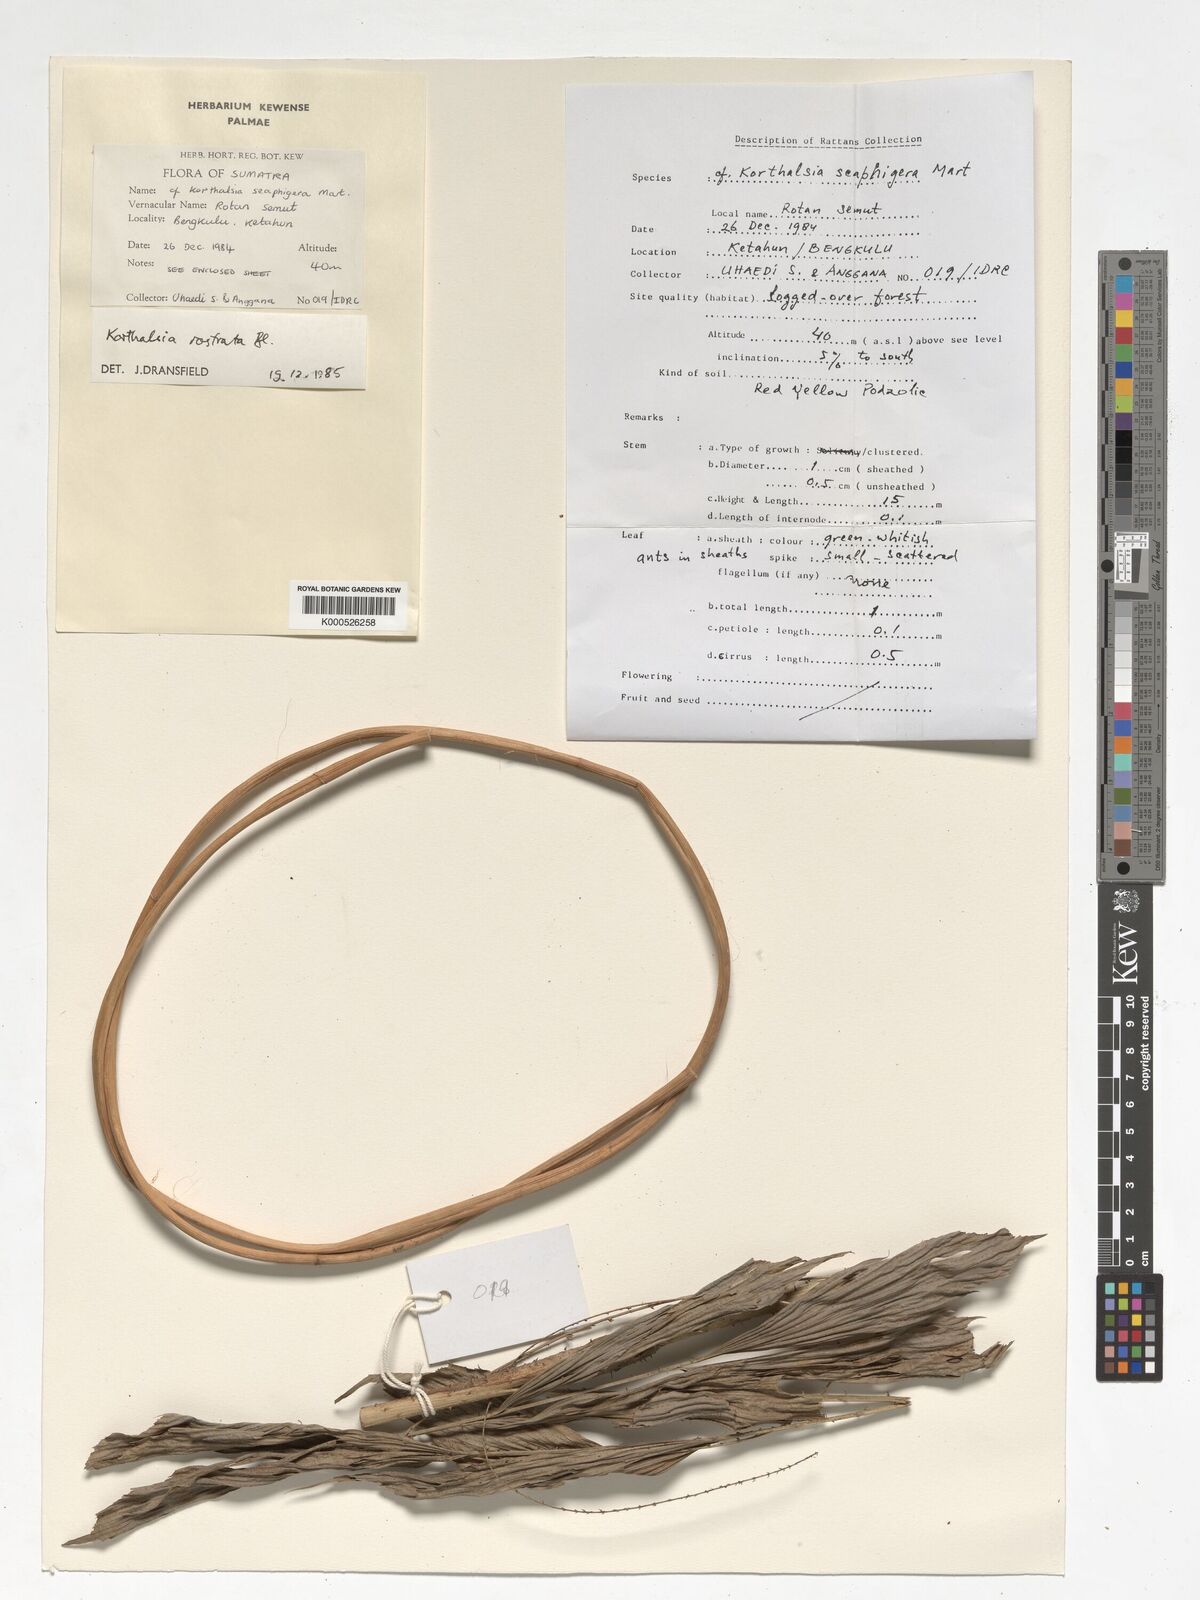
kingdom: Plantae
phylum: Tracheophyta
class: Liliopsida
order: Arecales
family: Arecaceae
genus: Korthalsia
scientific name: Korthalsia rostrata
